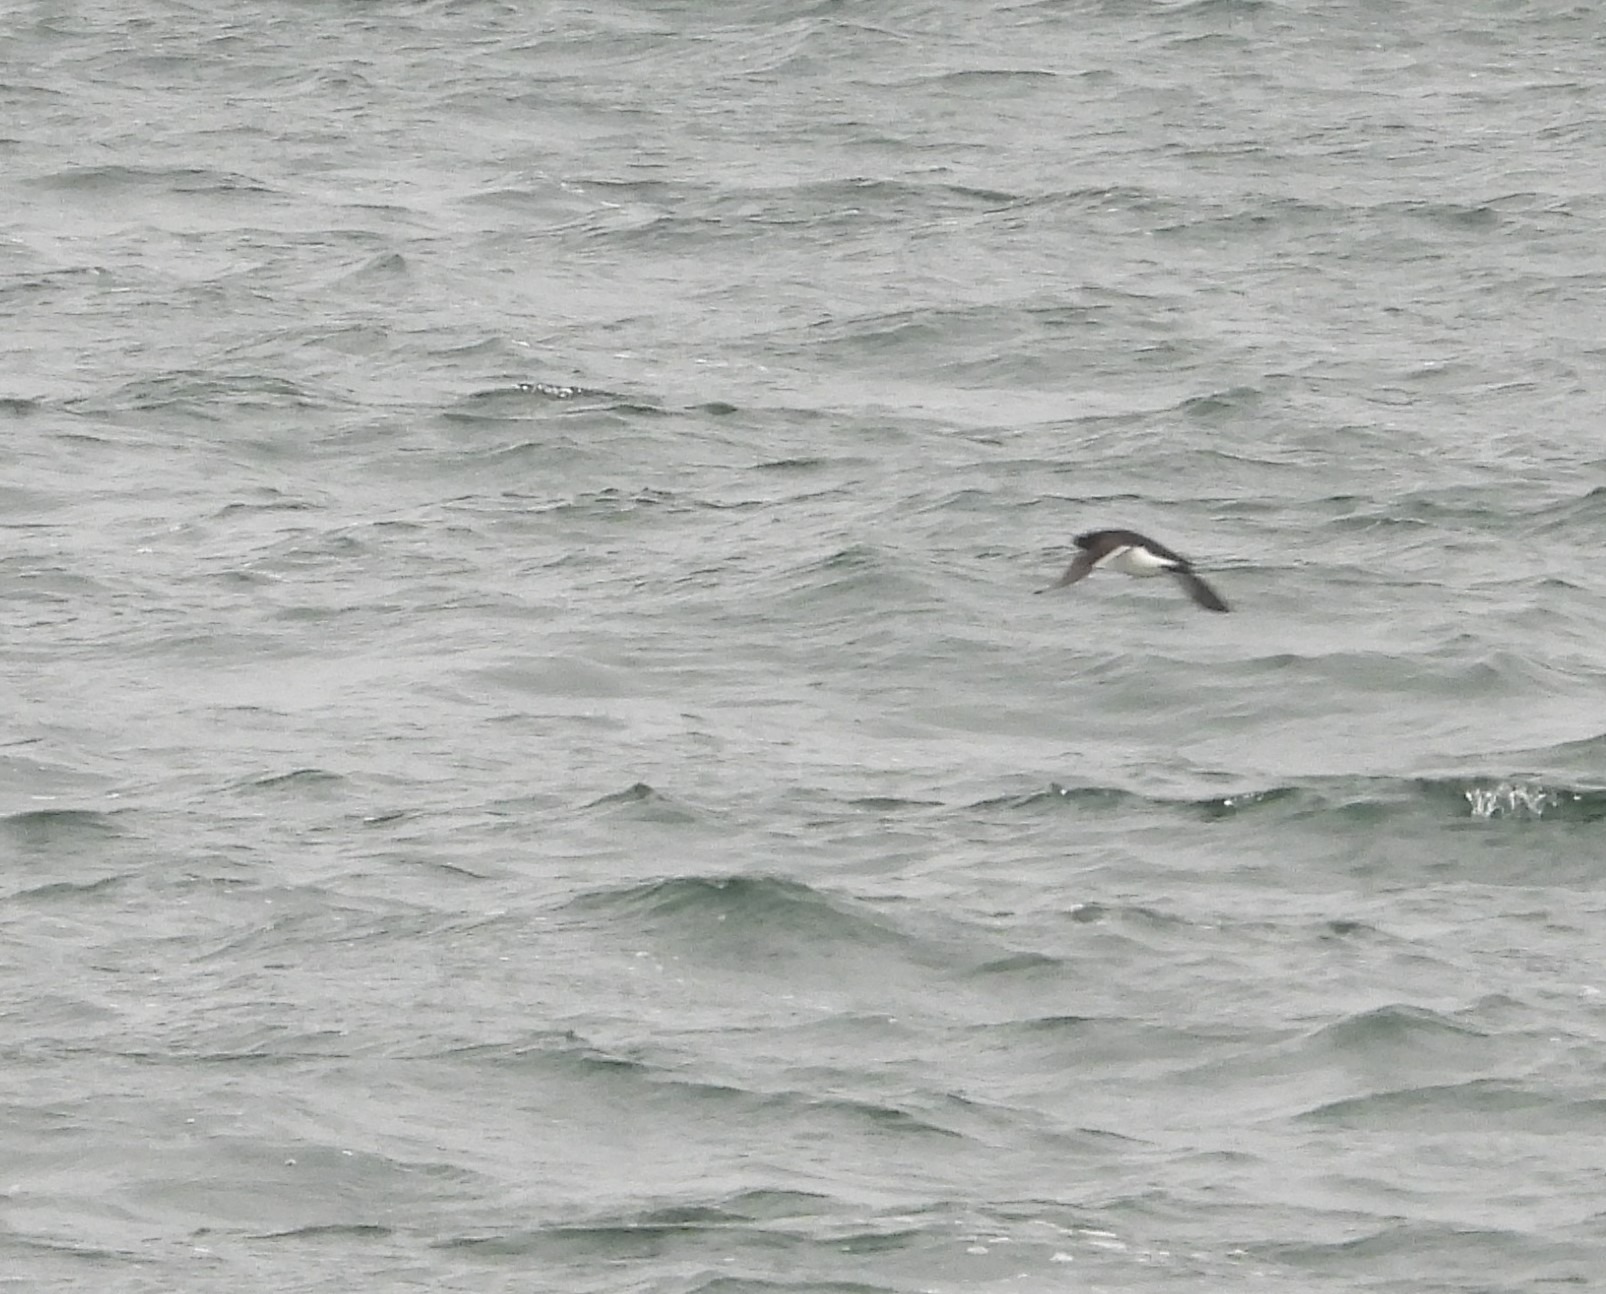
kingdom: Animalia
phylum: Chordata
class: Aves
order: Charadriiformes
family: Alcidae
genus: Alca
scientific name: Alca torda
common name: Alk
